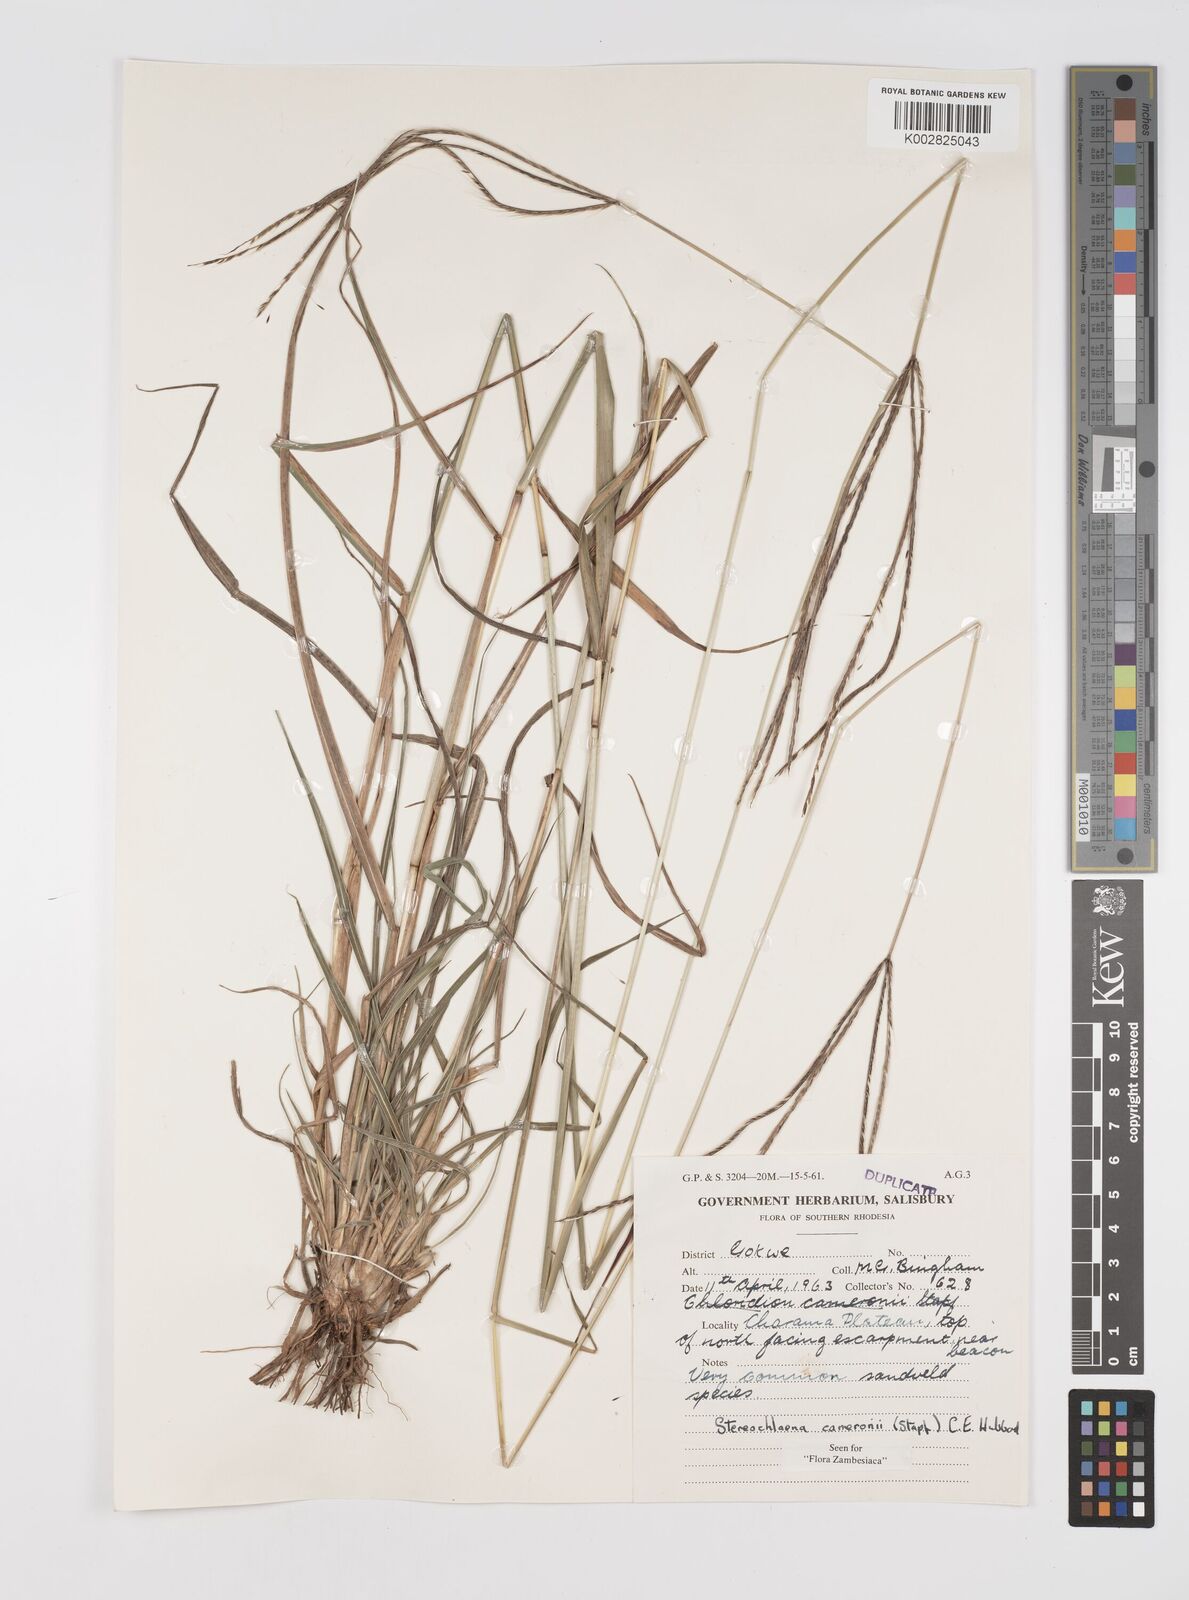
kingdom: Plantae
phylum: Tracheophyta
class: Liliopsida
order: Poales
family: Poaceae
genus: Stereochlaena
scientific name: Stereochlaena cameronii
